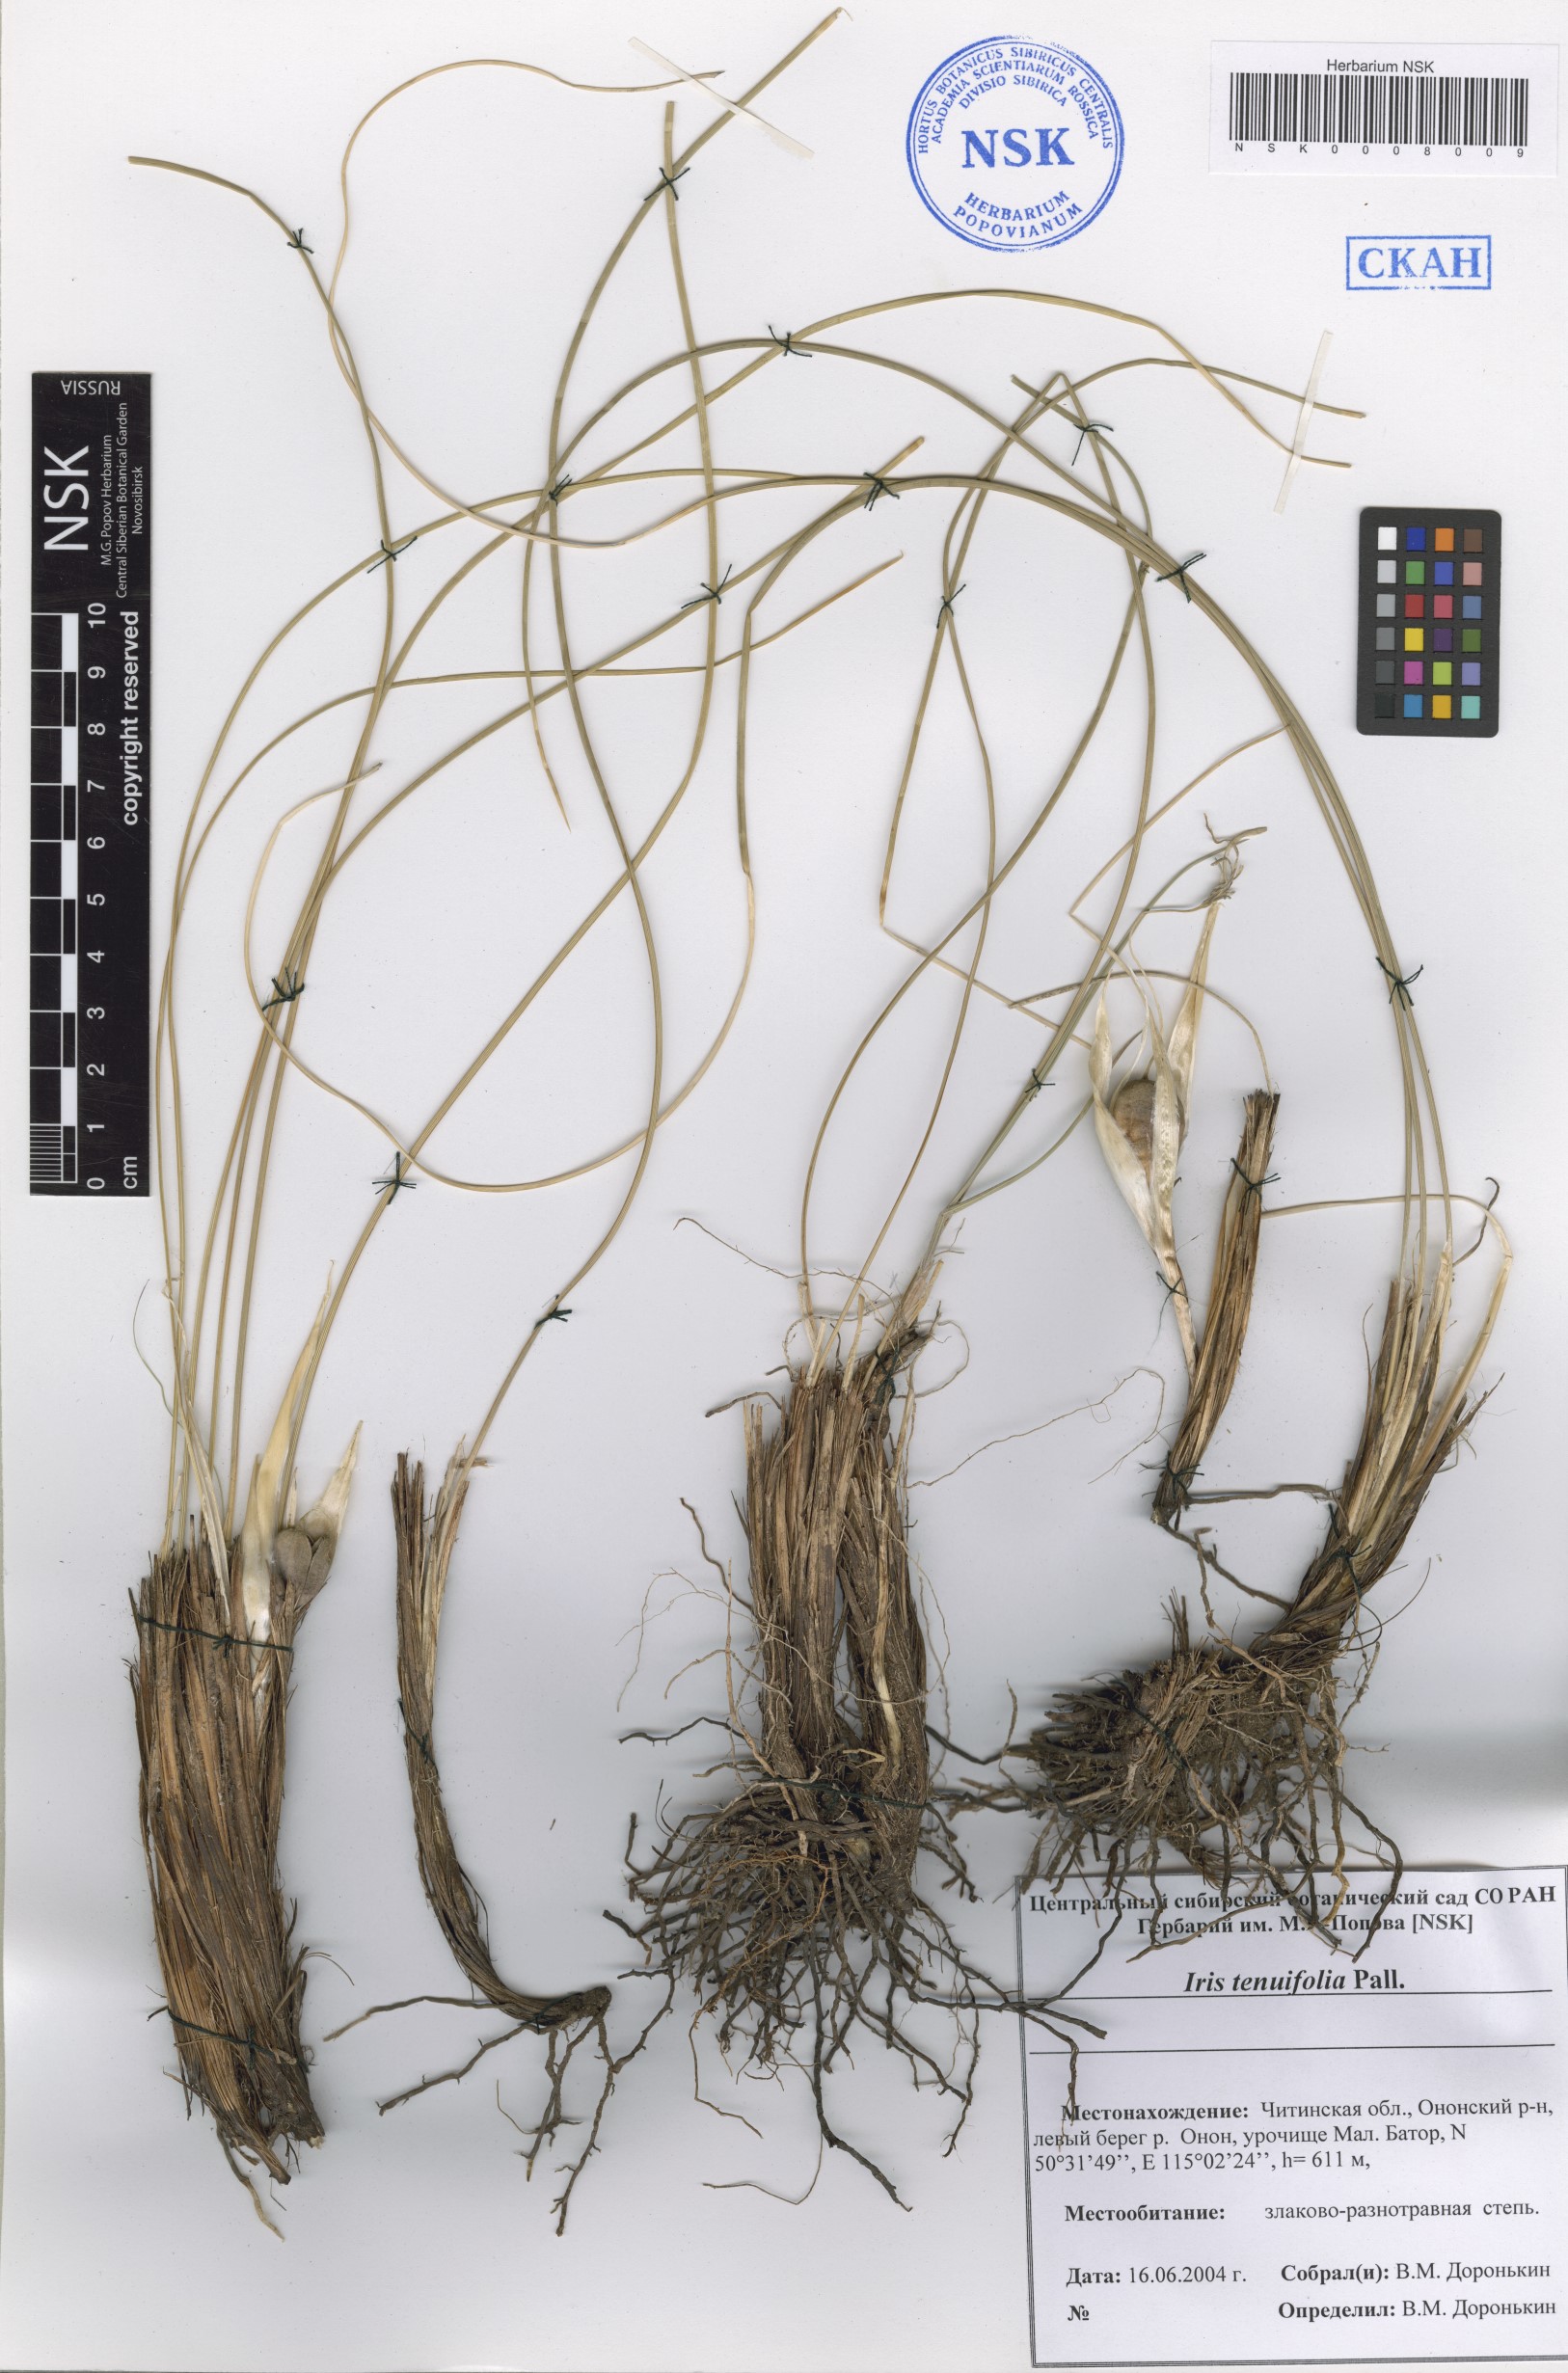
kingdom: Plantae
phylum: Tracheophyta
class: Liliopsida
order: Asparagales
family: Iridaceae
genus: Iris
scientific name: Iris tenuifolia
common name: Slender-leaf iris
